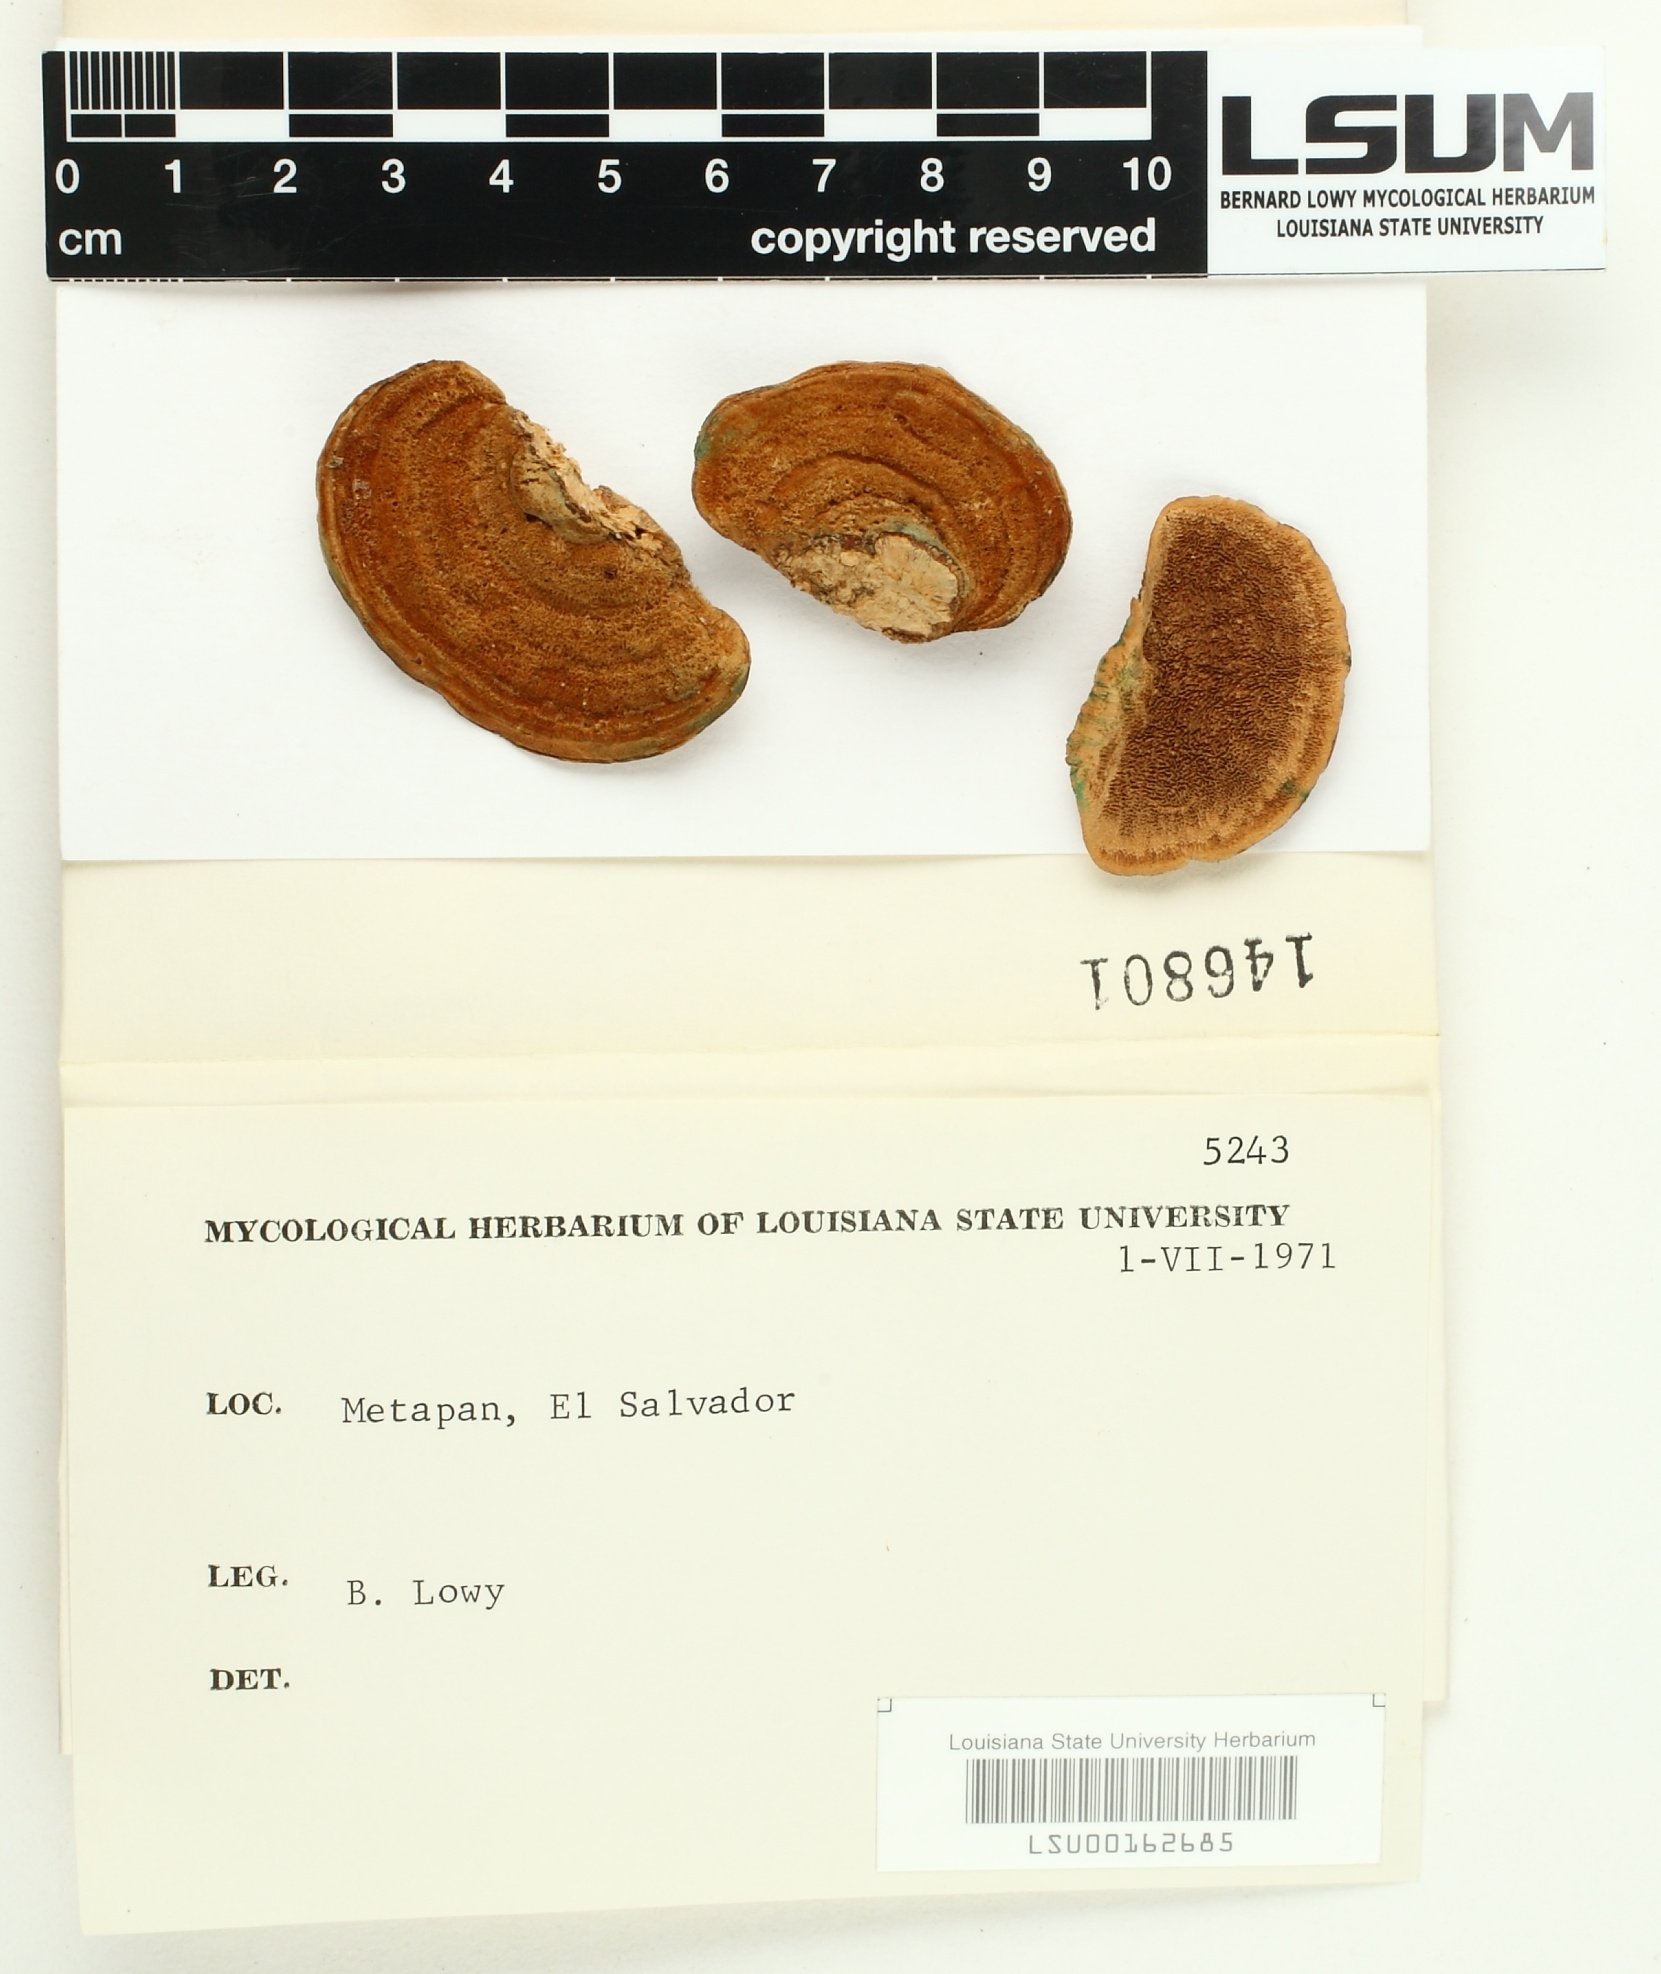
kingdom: Fungi
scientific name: Fungi
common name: Fungi
